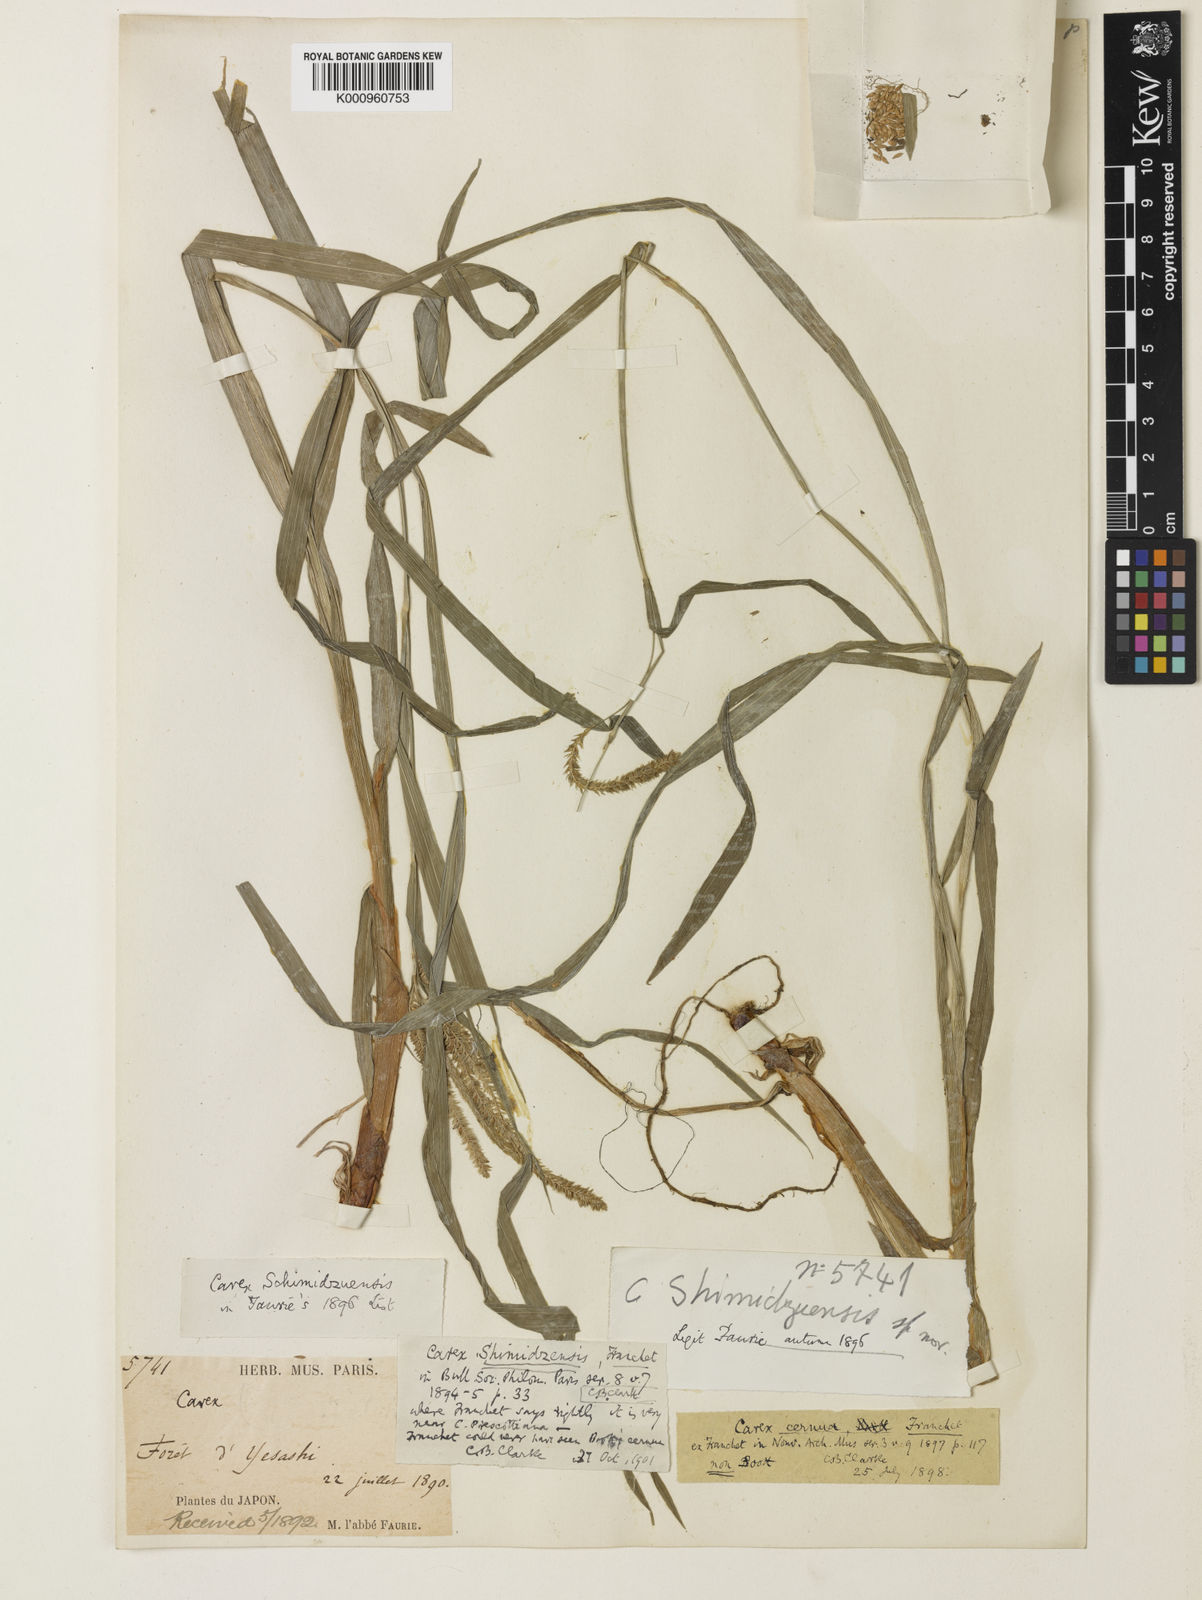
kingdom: Plantae
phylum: Tracheophyta
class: Liliopsida
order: Poales
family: Cyperaceae
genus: Carex
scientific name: Carex shimidzensis
